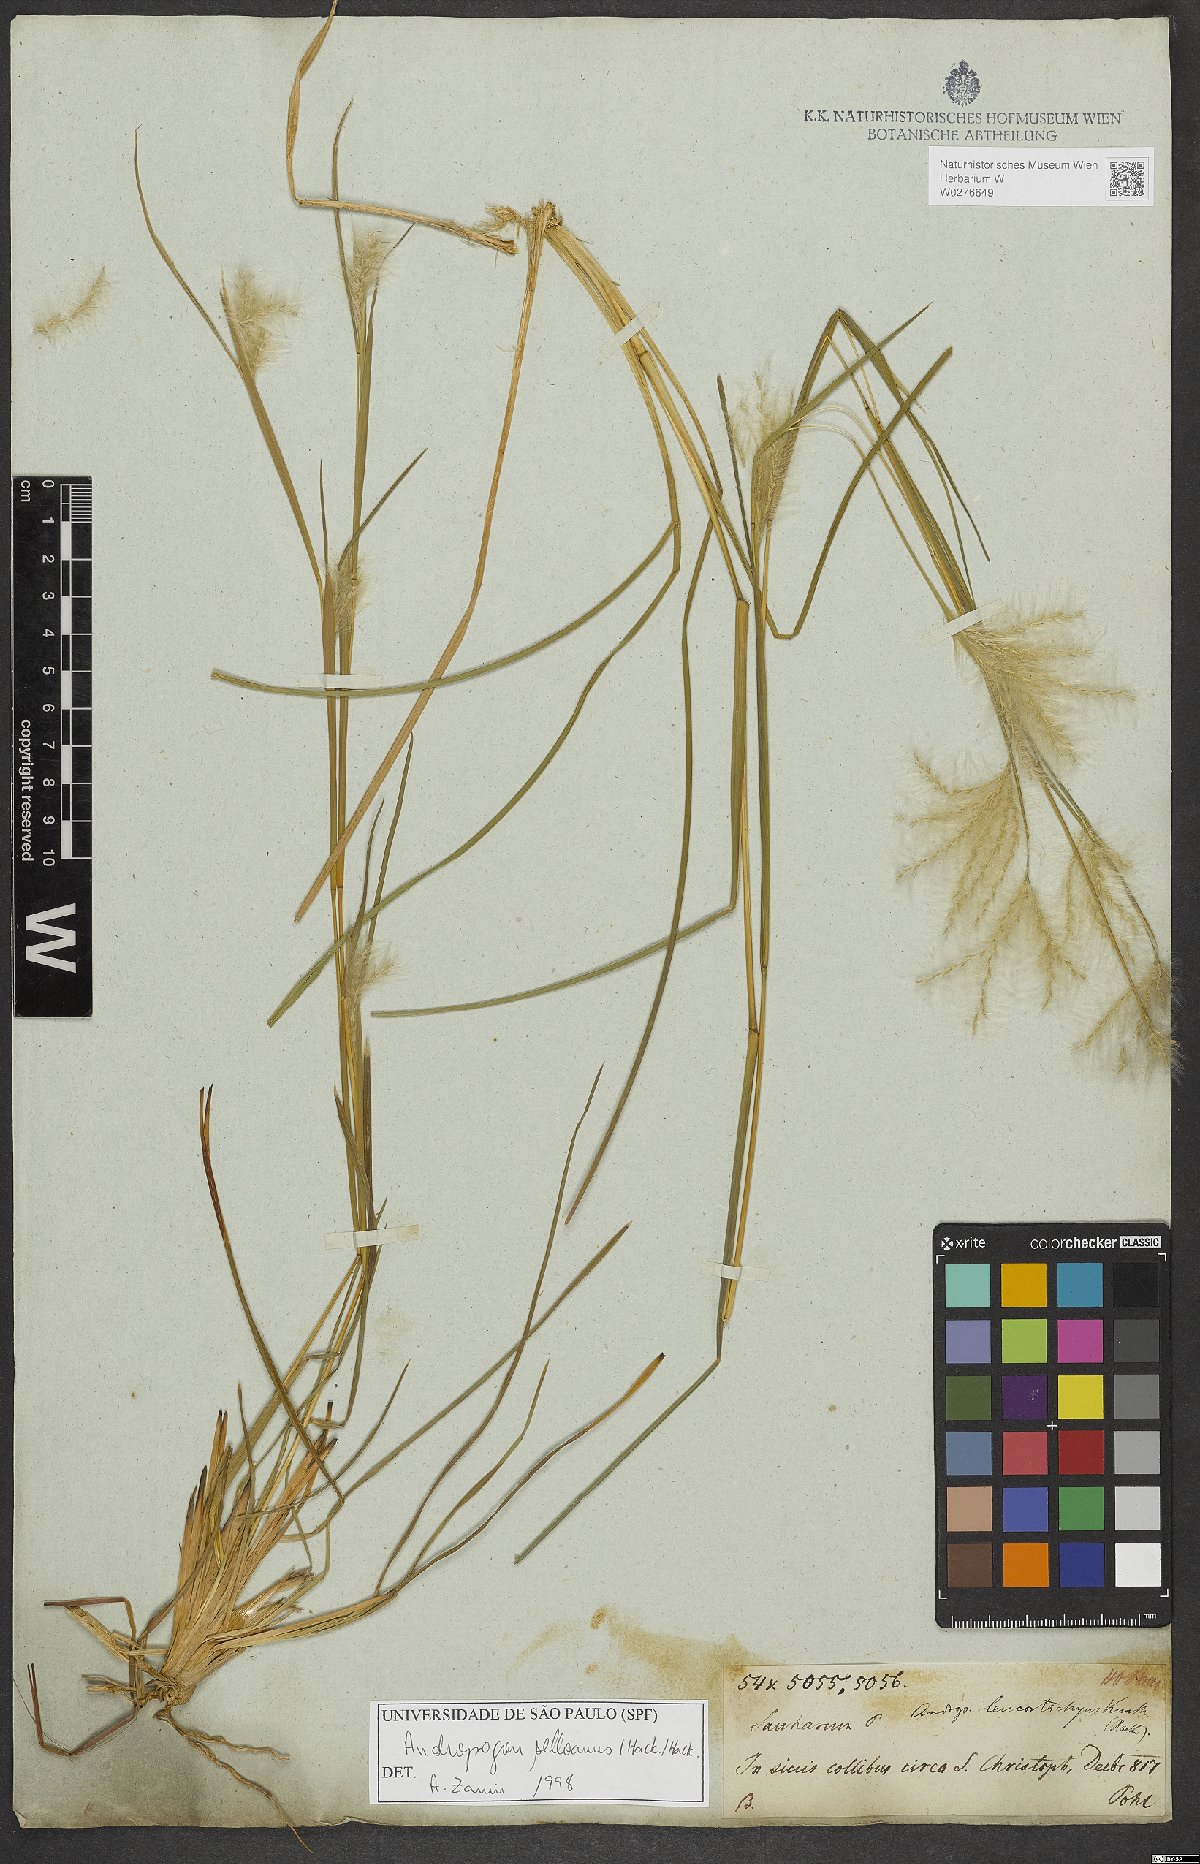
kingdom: Plantae
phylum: Tracheophyta
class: Liliopsida
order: Poales
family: Poaceae
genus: Andropogon
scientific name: Andropogon selloanus
